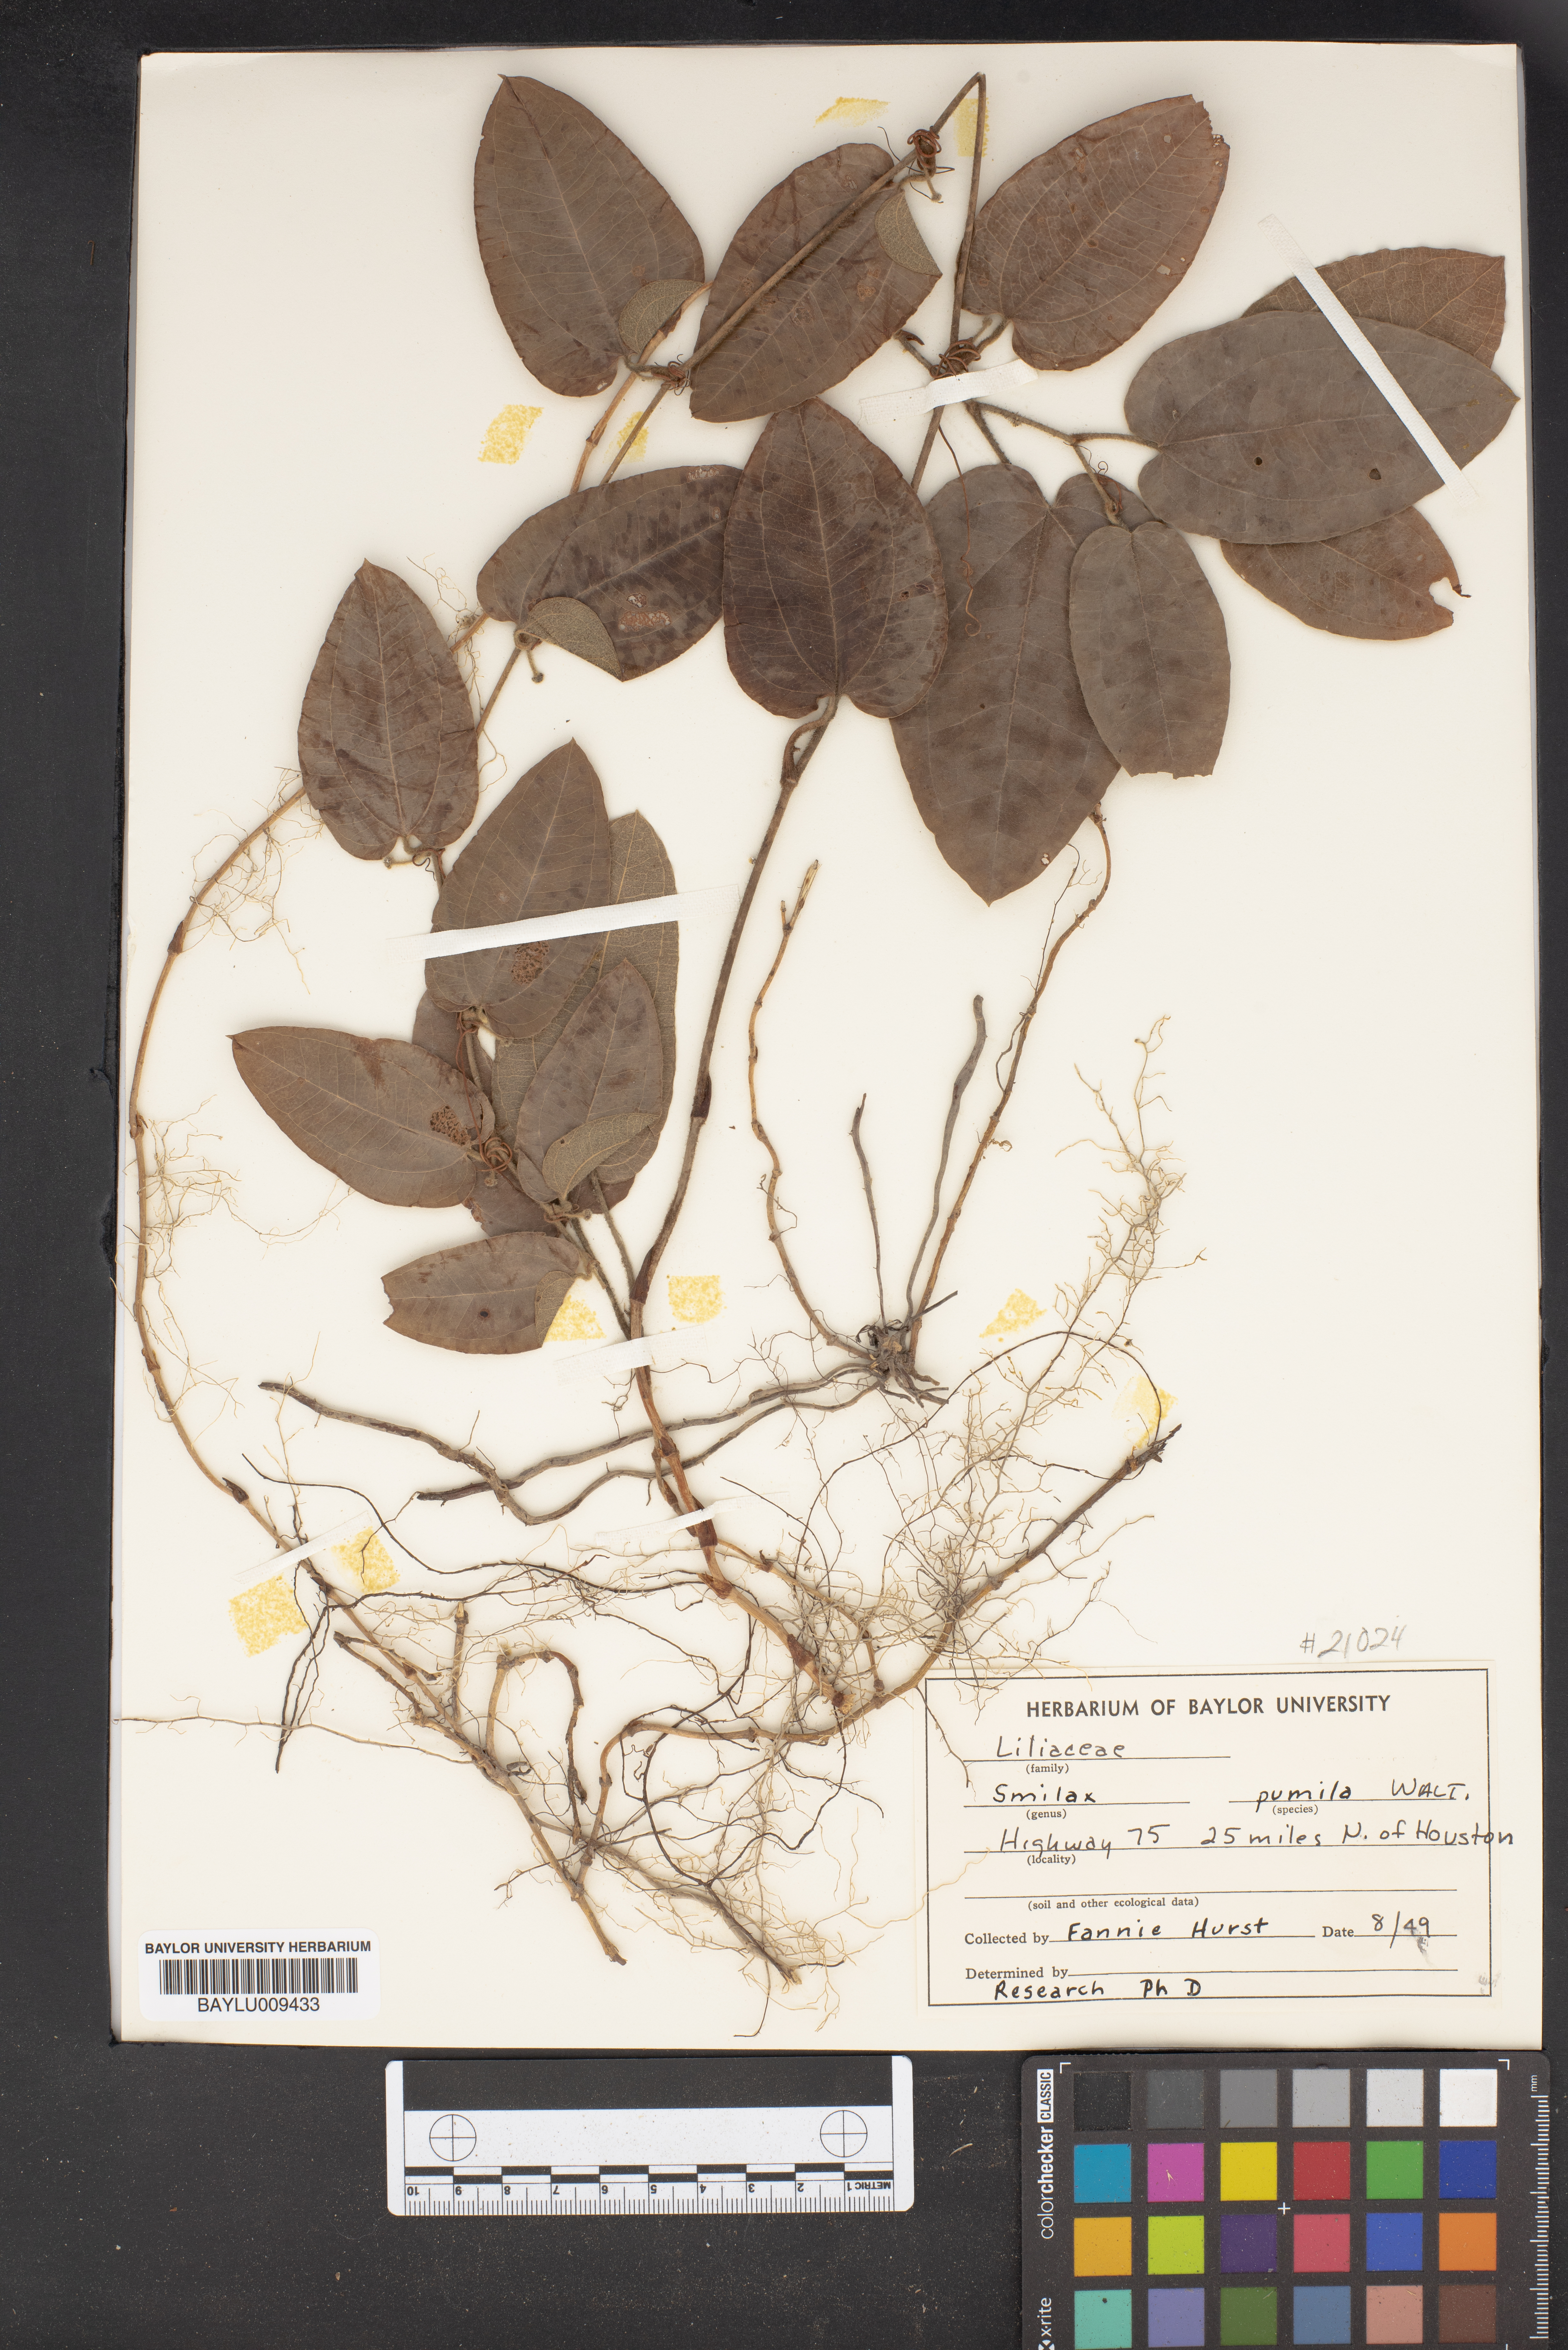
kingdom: Plantae
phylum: Tracheophyta
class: Liliopsida
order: Liliales
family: Smilacaceae
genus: Smilax
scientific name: Smilax pumila
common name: Sarsaparilla-vine
